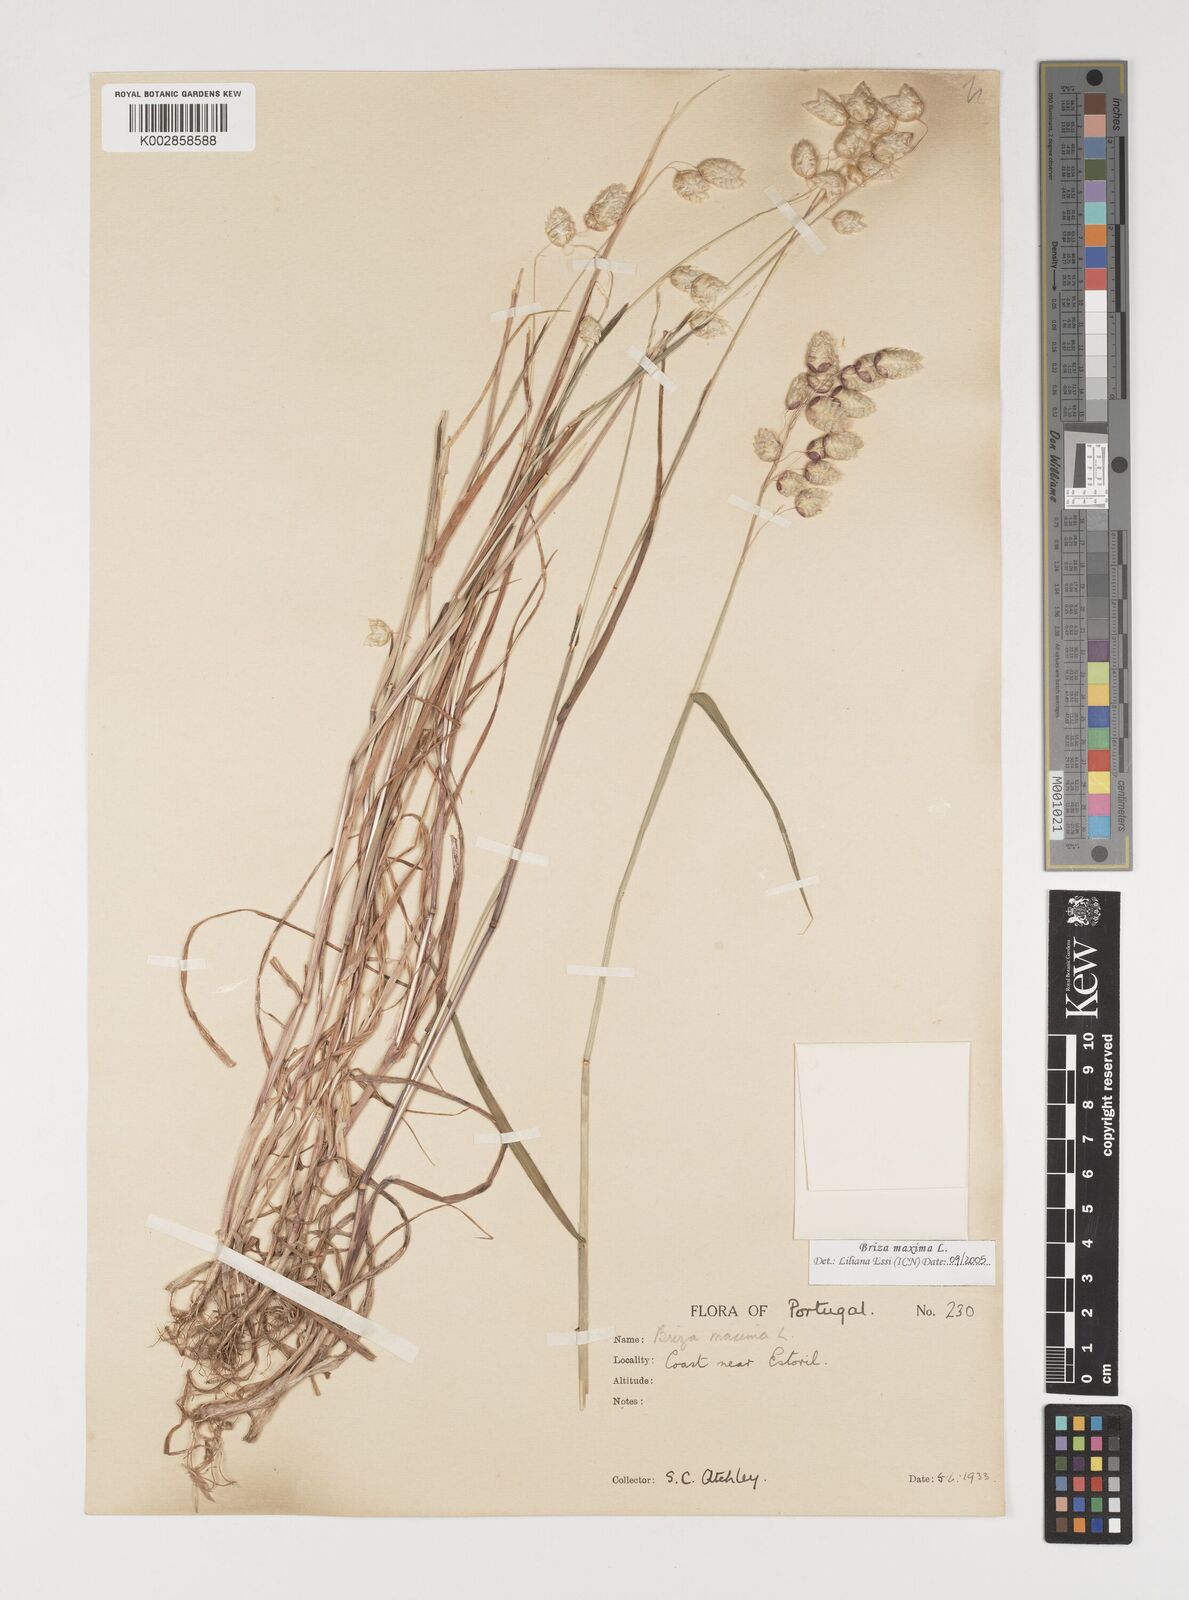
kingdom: Plantae
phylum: Tracheophyta
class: Liliopsida
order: Poales
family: Poaceae
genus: Briza
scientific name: Briza maxima
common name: Big quakinggrass
